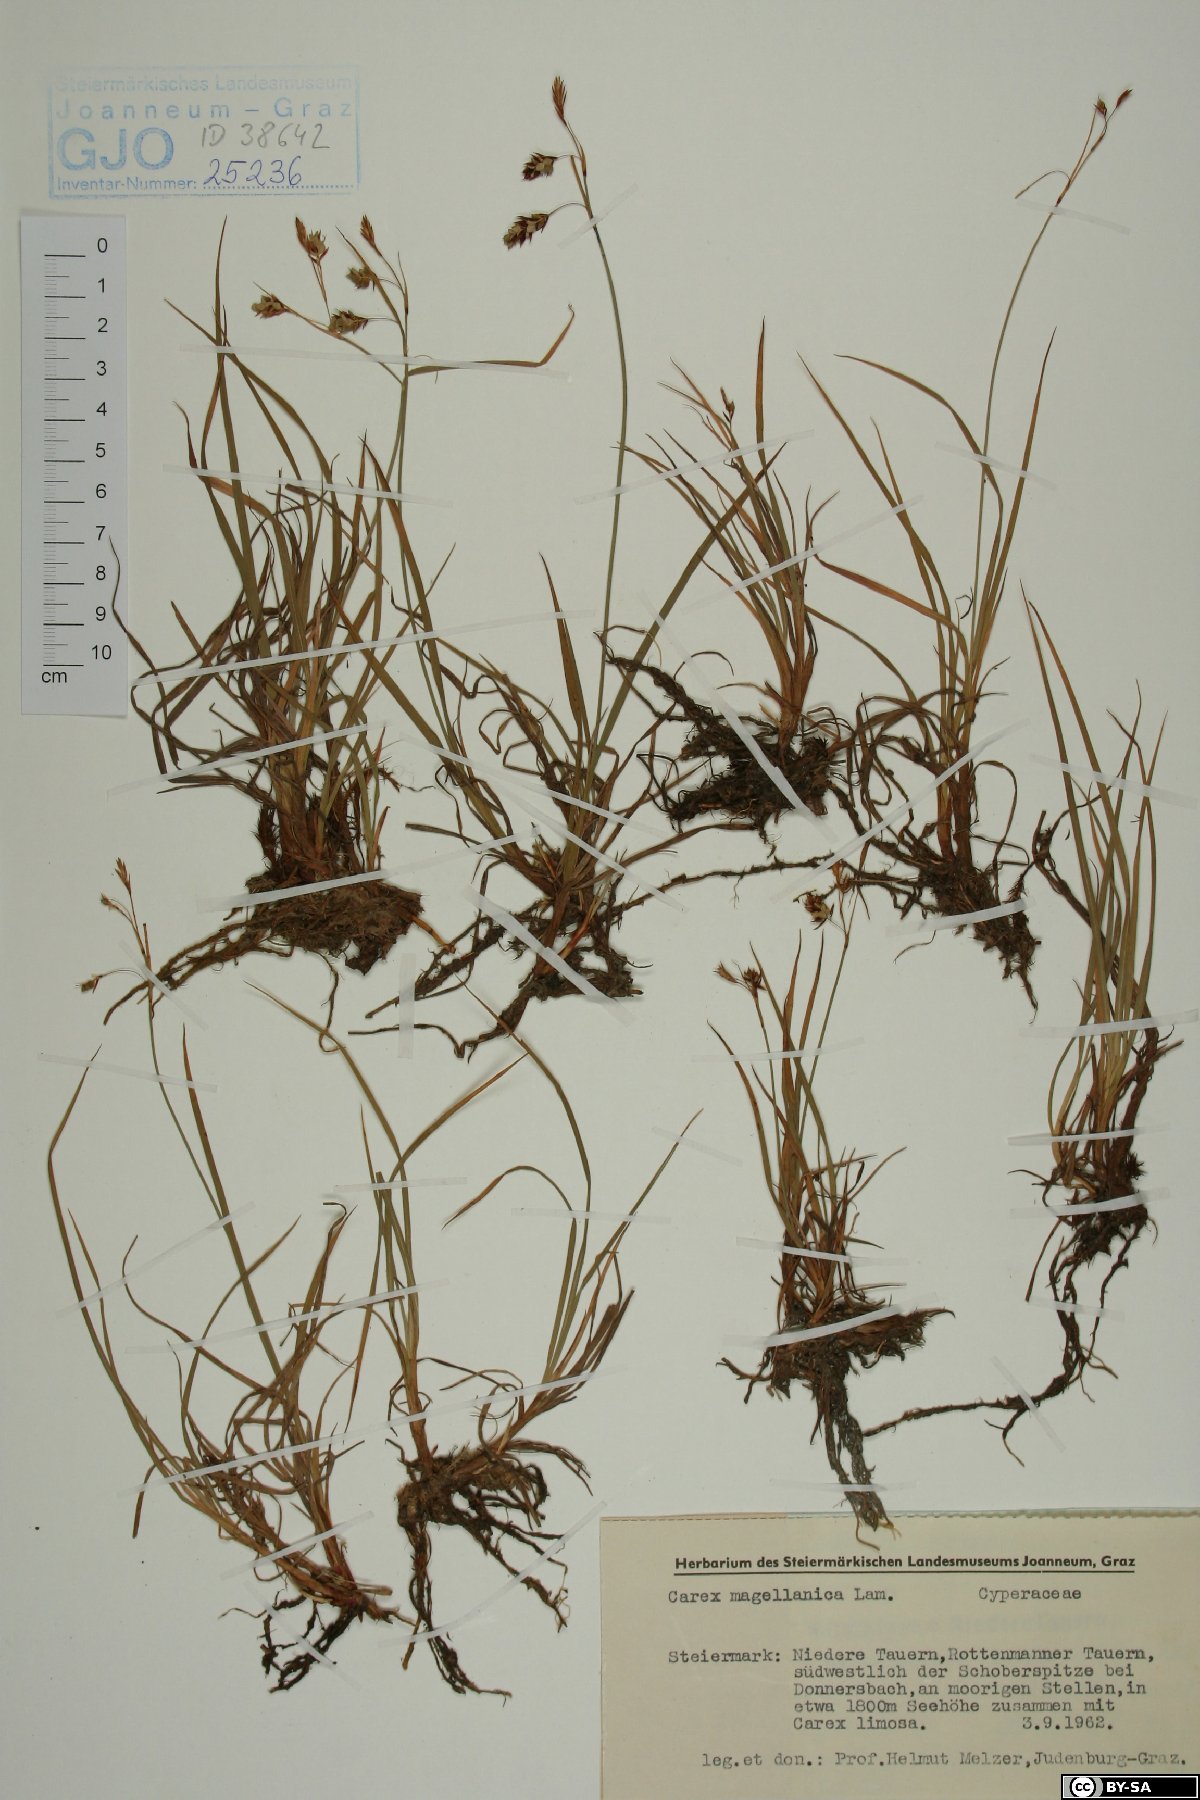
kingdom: Plantae
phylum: Tracheophyta
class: Liliopsida
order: Poales
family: Cyperaceae
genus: Carex
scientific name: Carex magellanica
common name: Bog sedge
